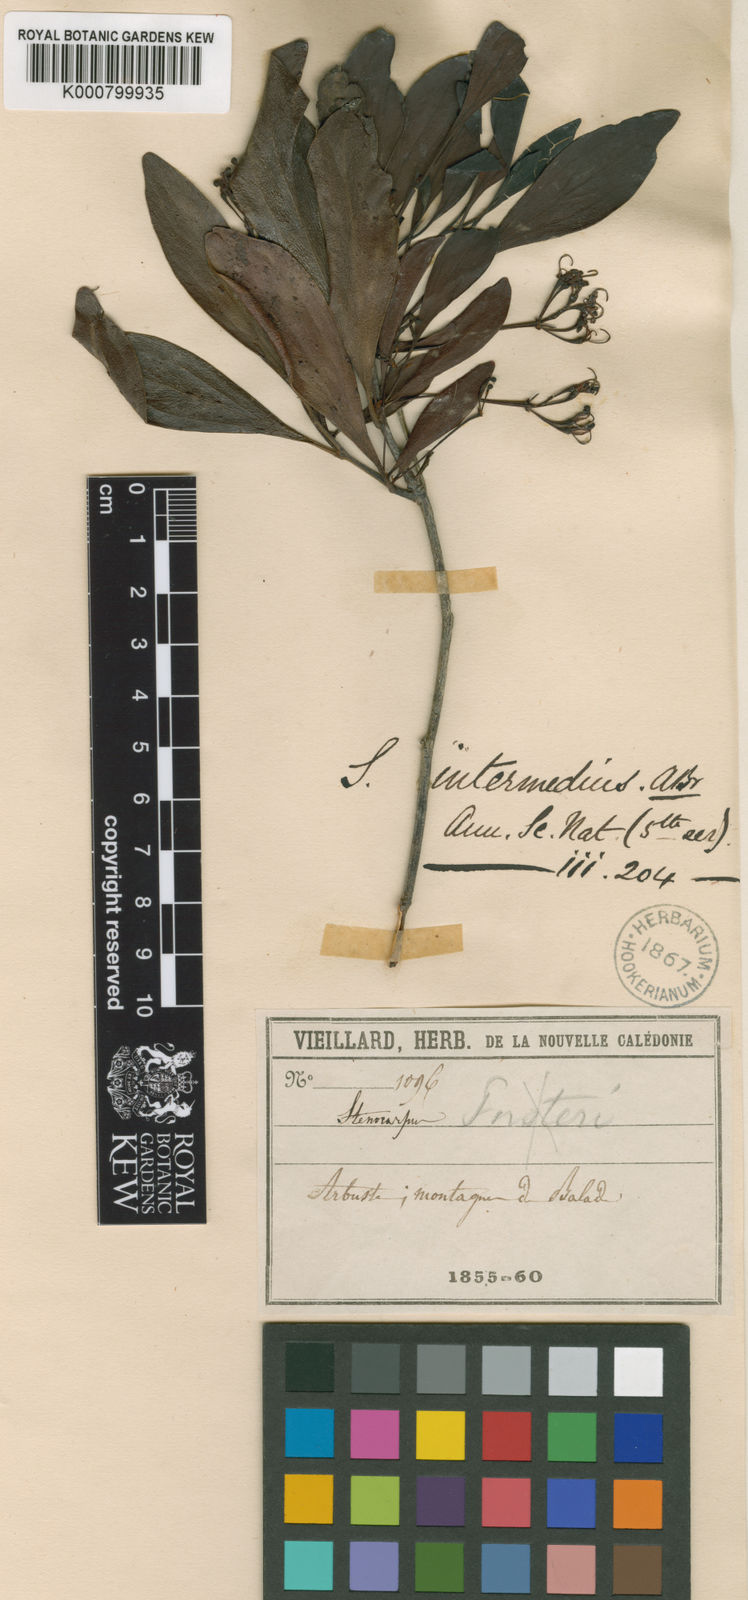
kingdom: Plantae
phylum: Tracheophyta
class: Magnoliopsida
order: Proteales
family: Proteaceae
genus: Stenocarpus
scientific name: Stenocarpus intermedius
